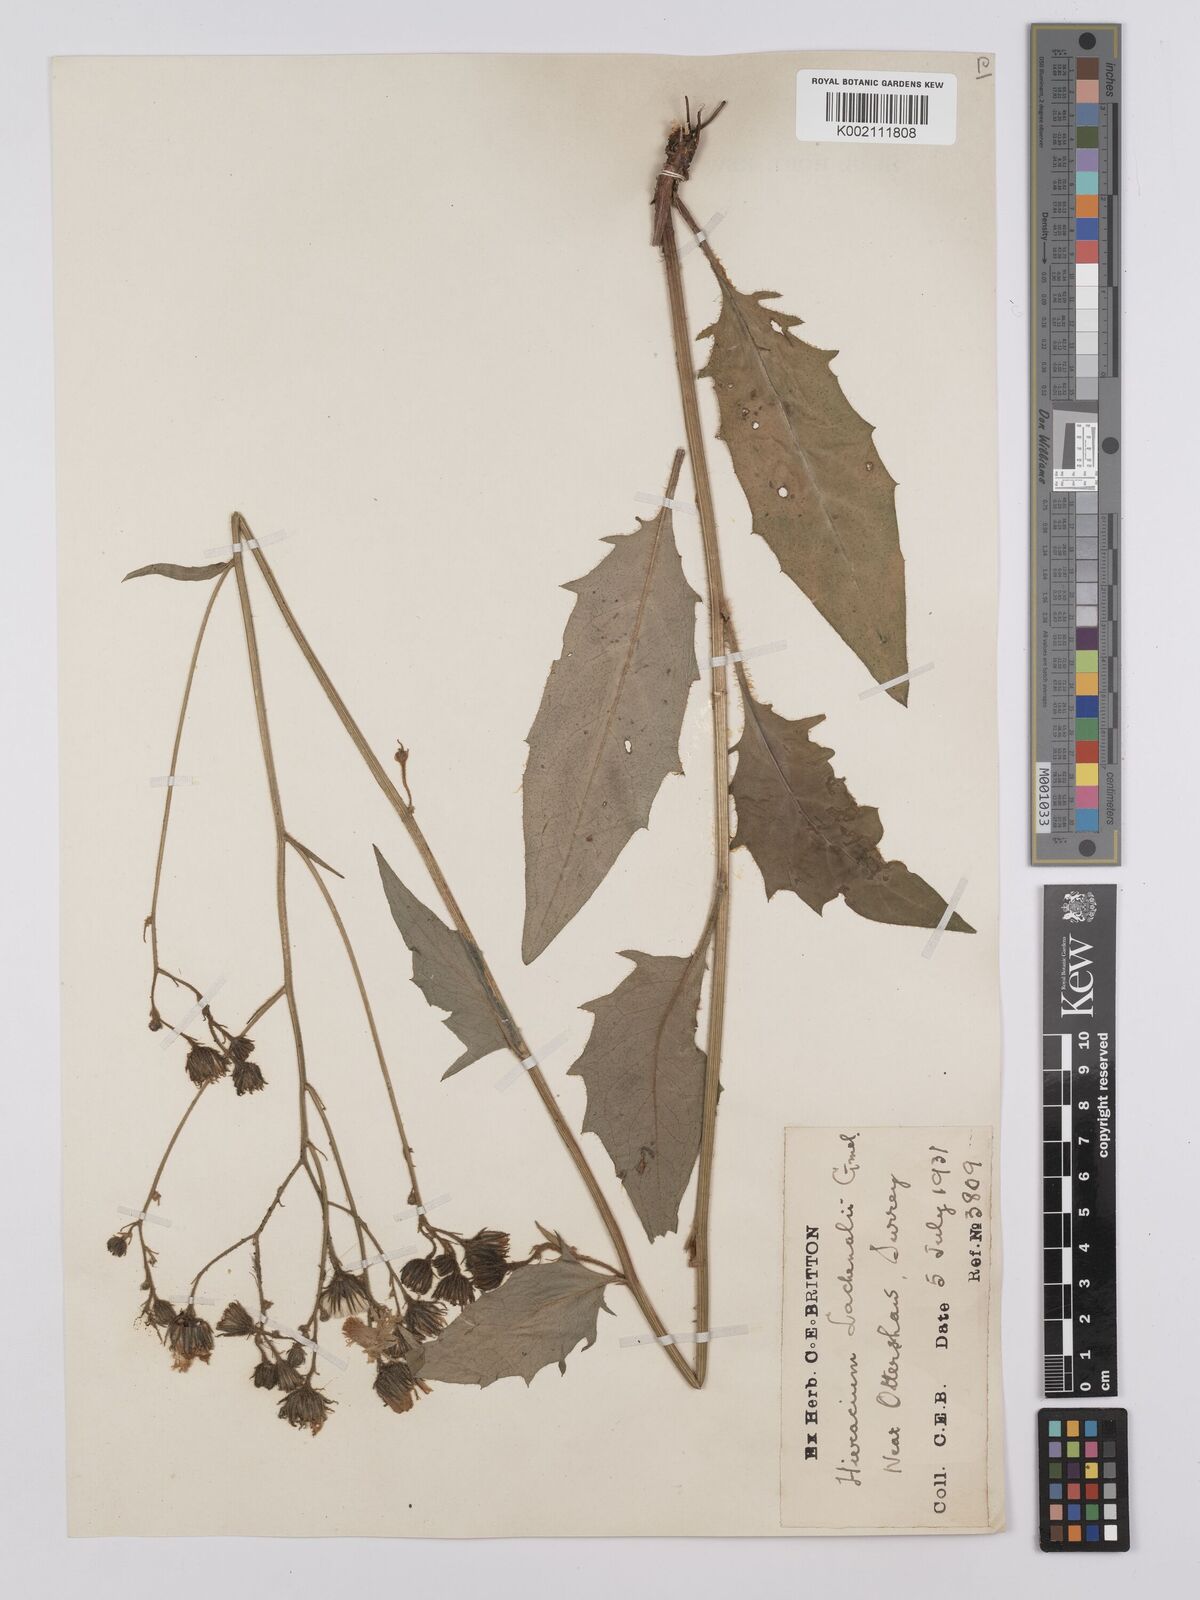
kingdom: Plantae
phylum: Tracheophyta
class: Magnoliopsida
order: Asterales
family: Asteraceae
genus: Hieracium
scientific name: Hieracium lachenalii
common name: Common hawkweed
